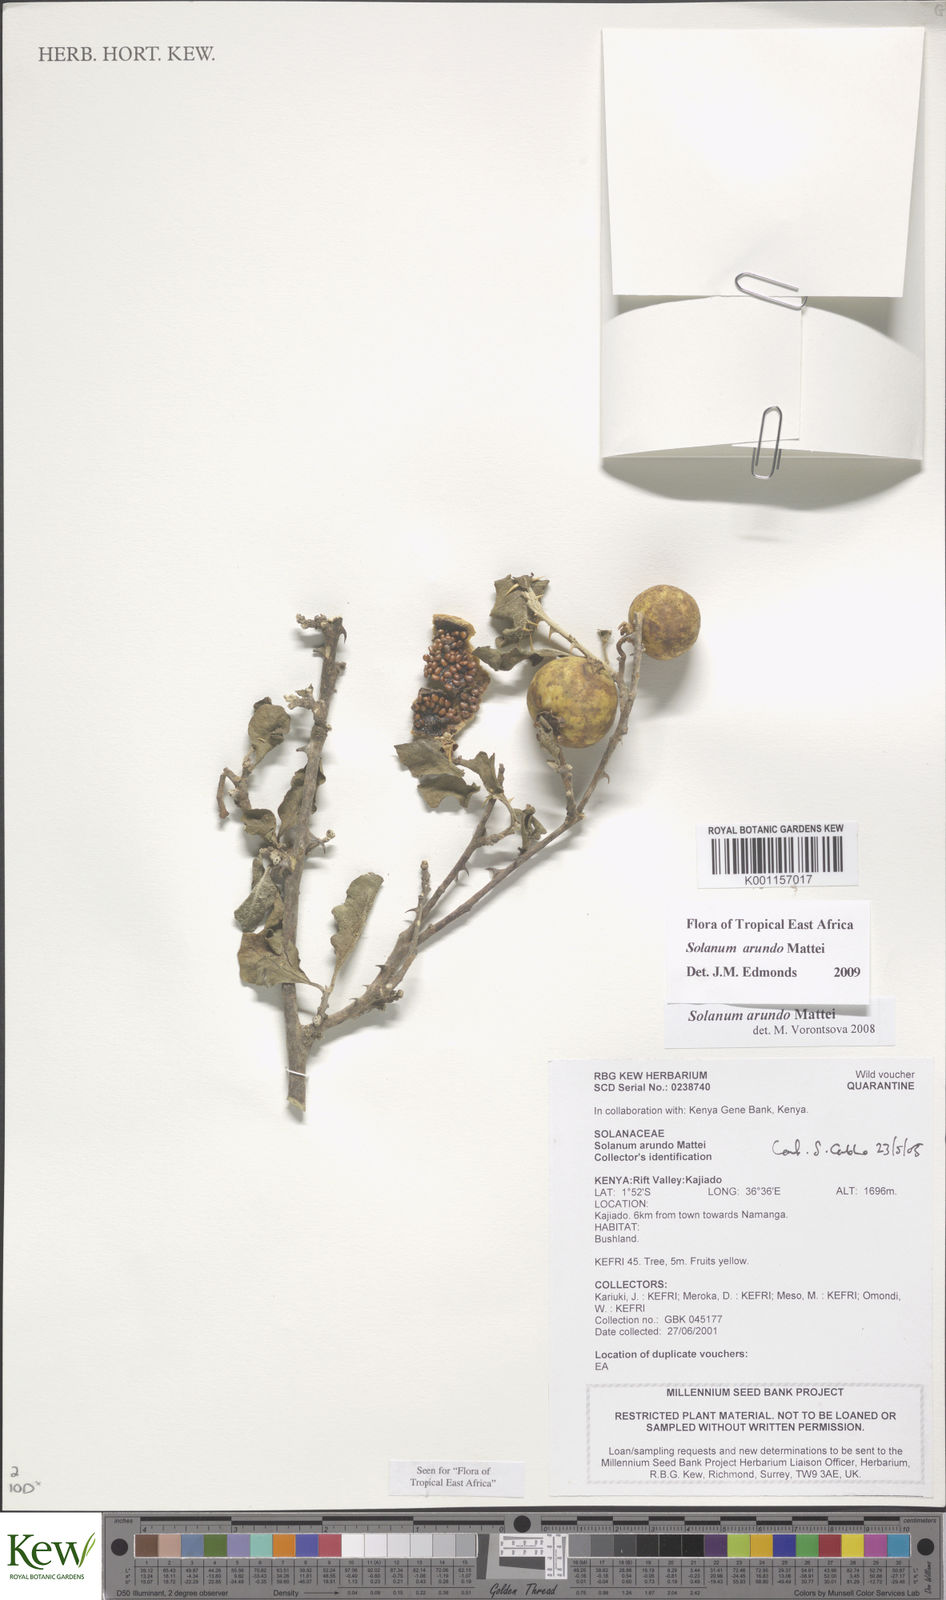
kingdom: Plantae
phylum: Tracheophyta
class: Magnoliopsida
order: Solanales
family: Solanaceae
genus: Solanum
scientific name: Solanum arundo
